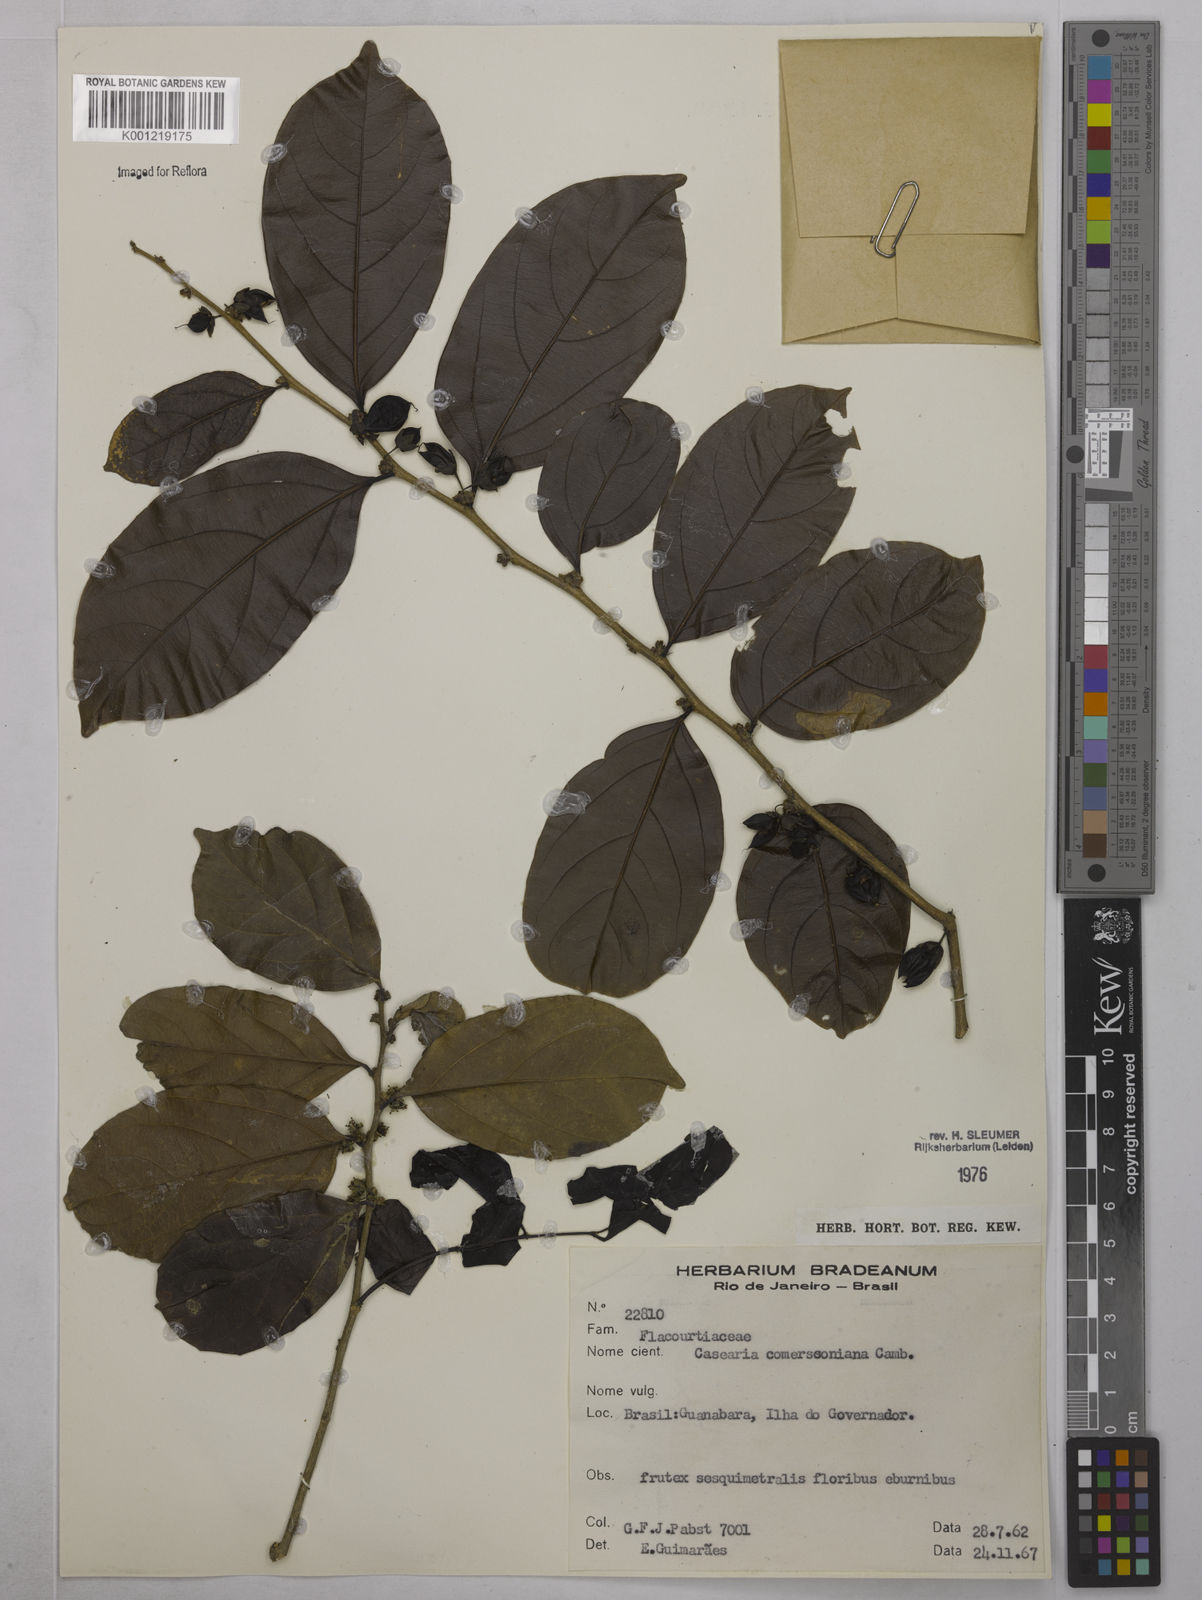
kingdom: Plantae
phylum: Tracheophyta
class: Magnoliopsida
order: Malpighiales
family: Salicaceae
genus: Piparea
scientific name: Piparea dentata
